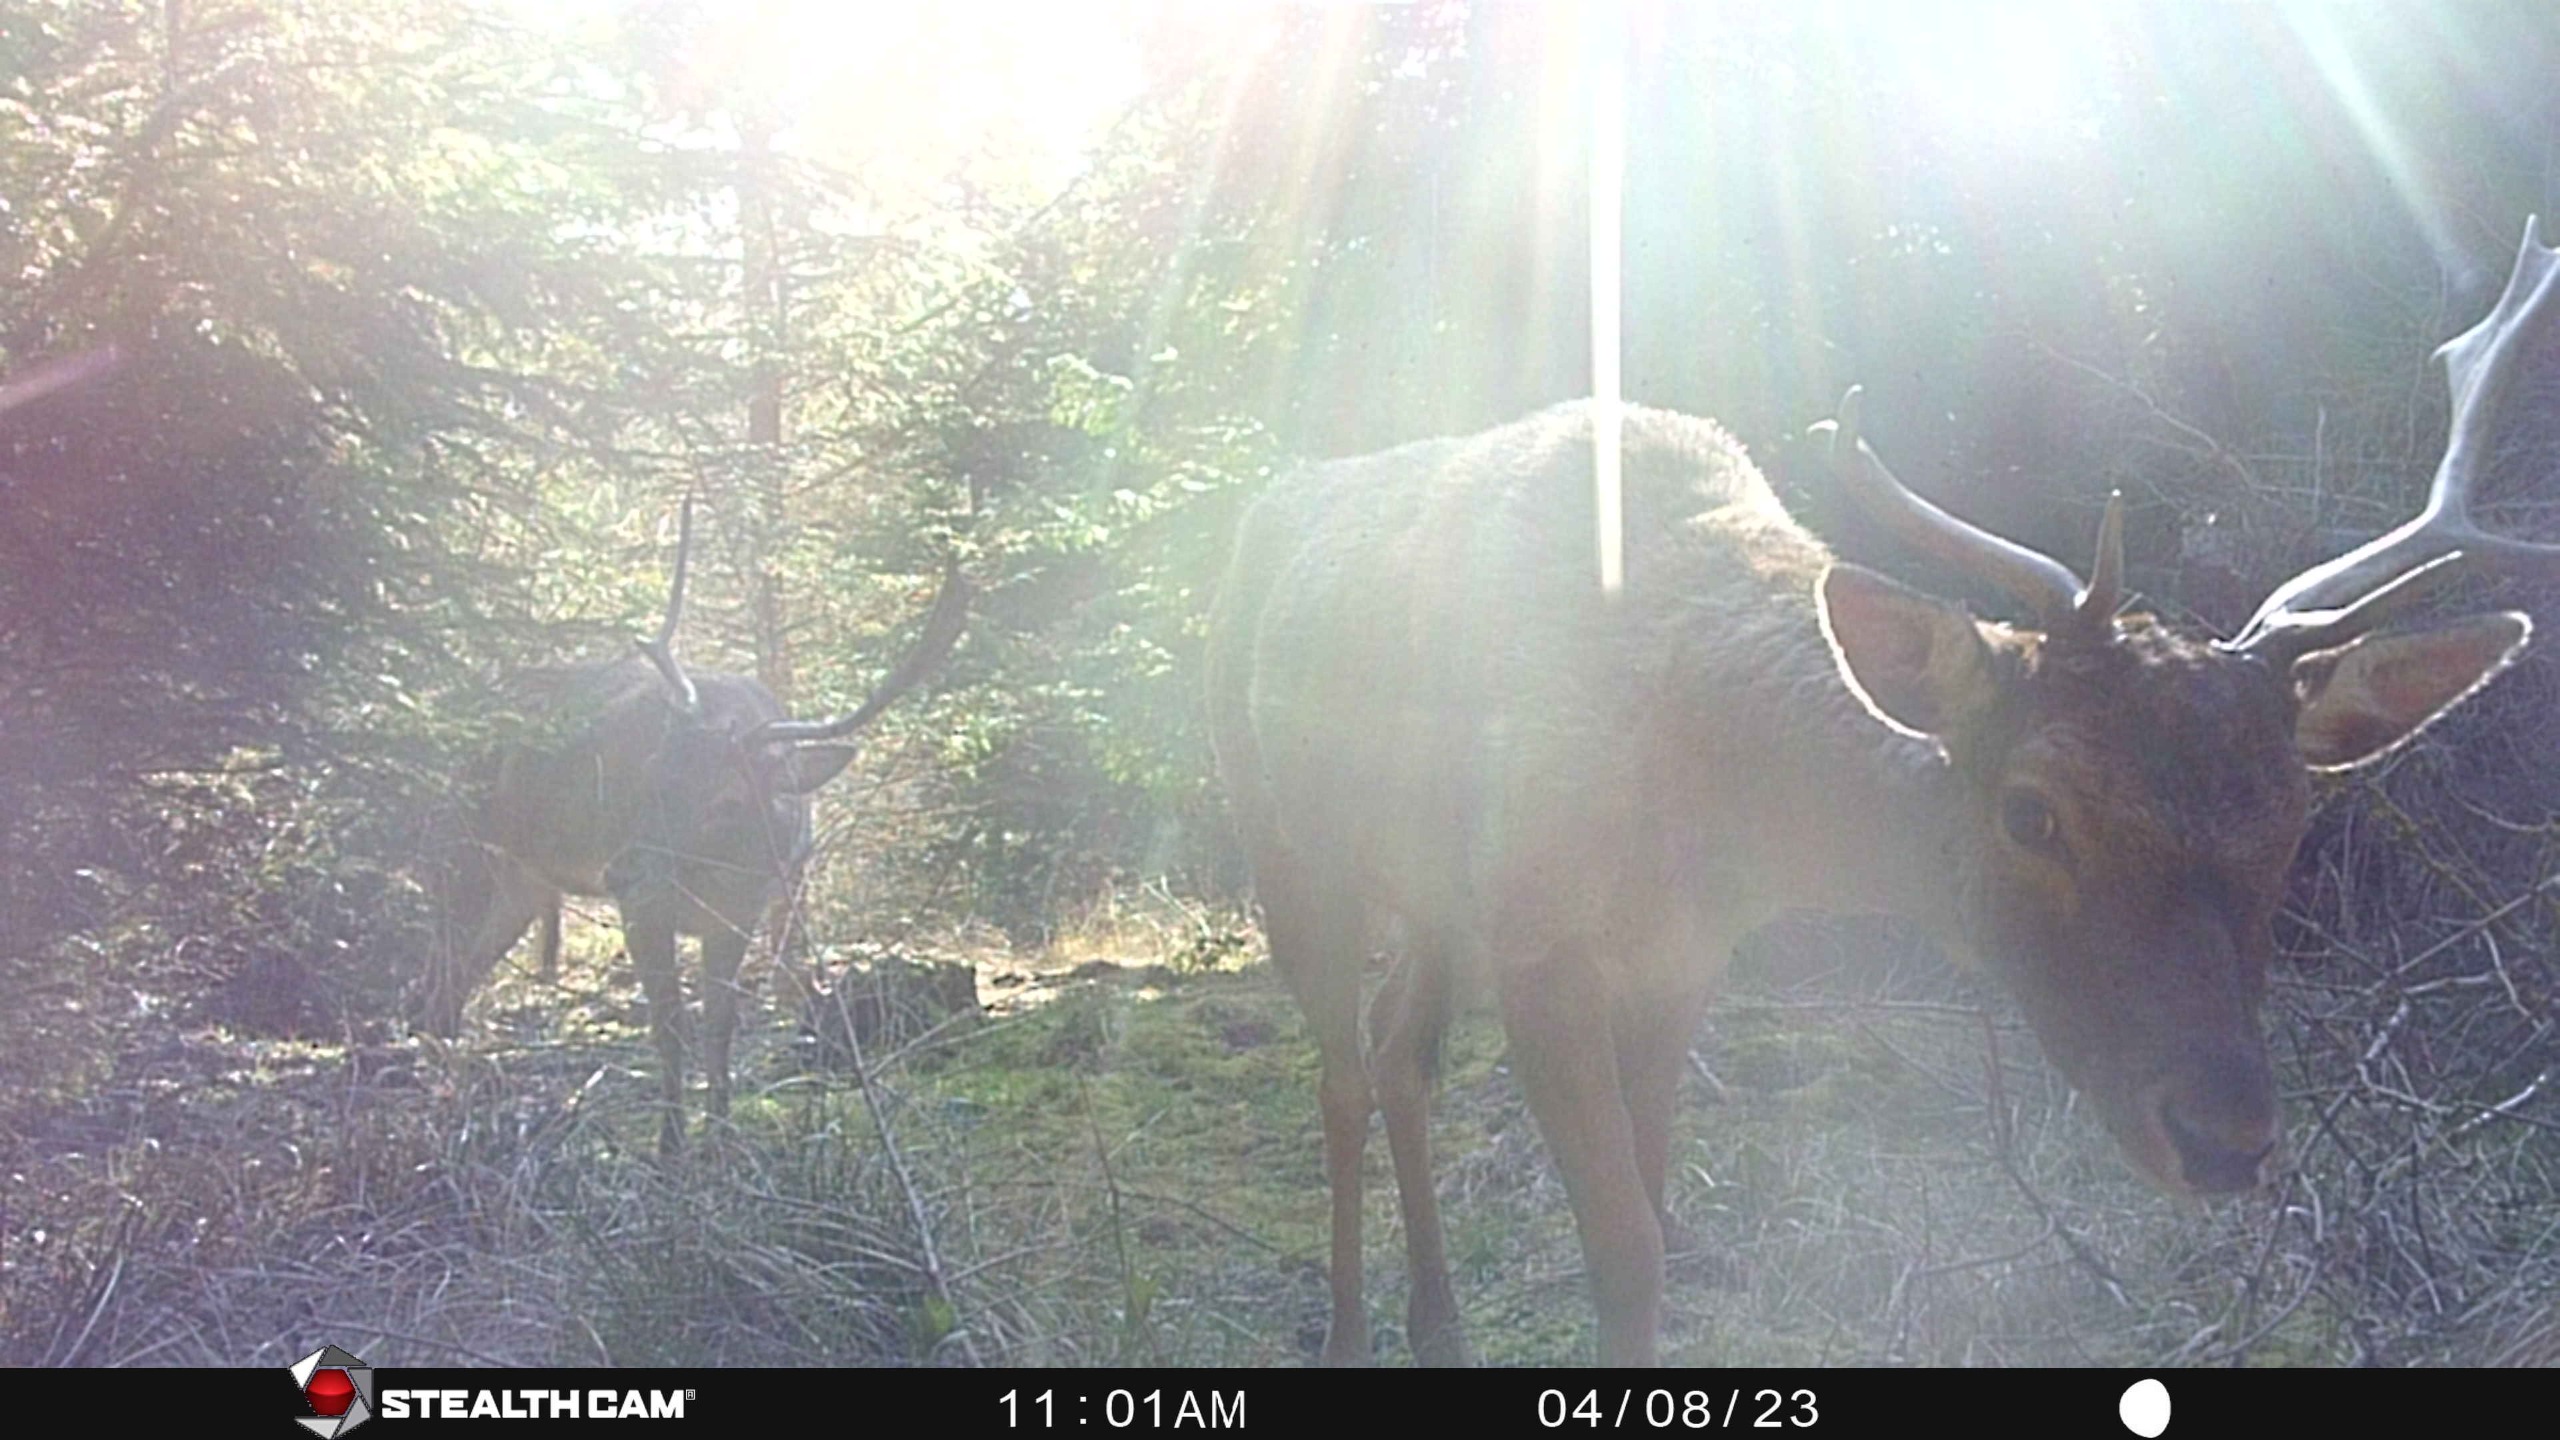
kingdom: Animalia
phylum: Chordata
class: Mammalia
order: Artiodactyla
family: Cervidae
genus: Dama
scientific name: Dama dama
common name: Dådyr
